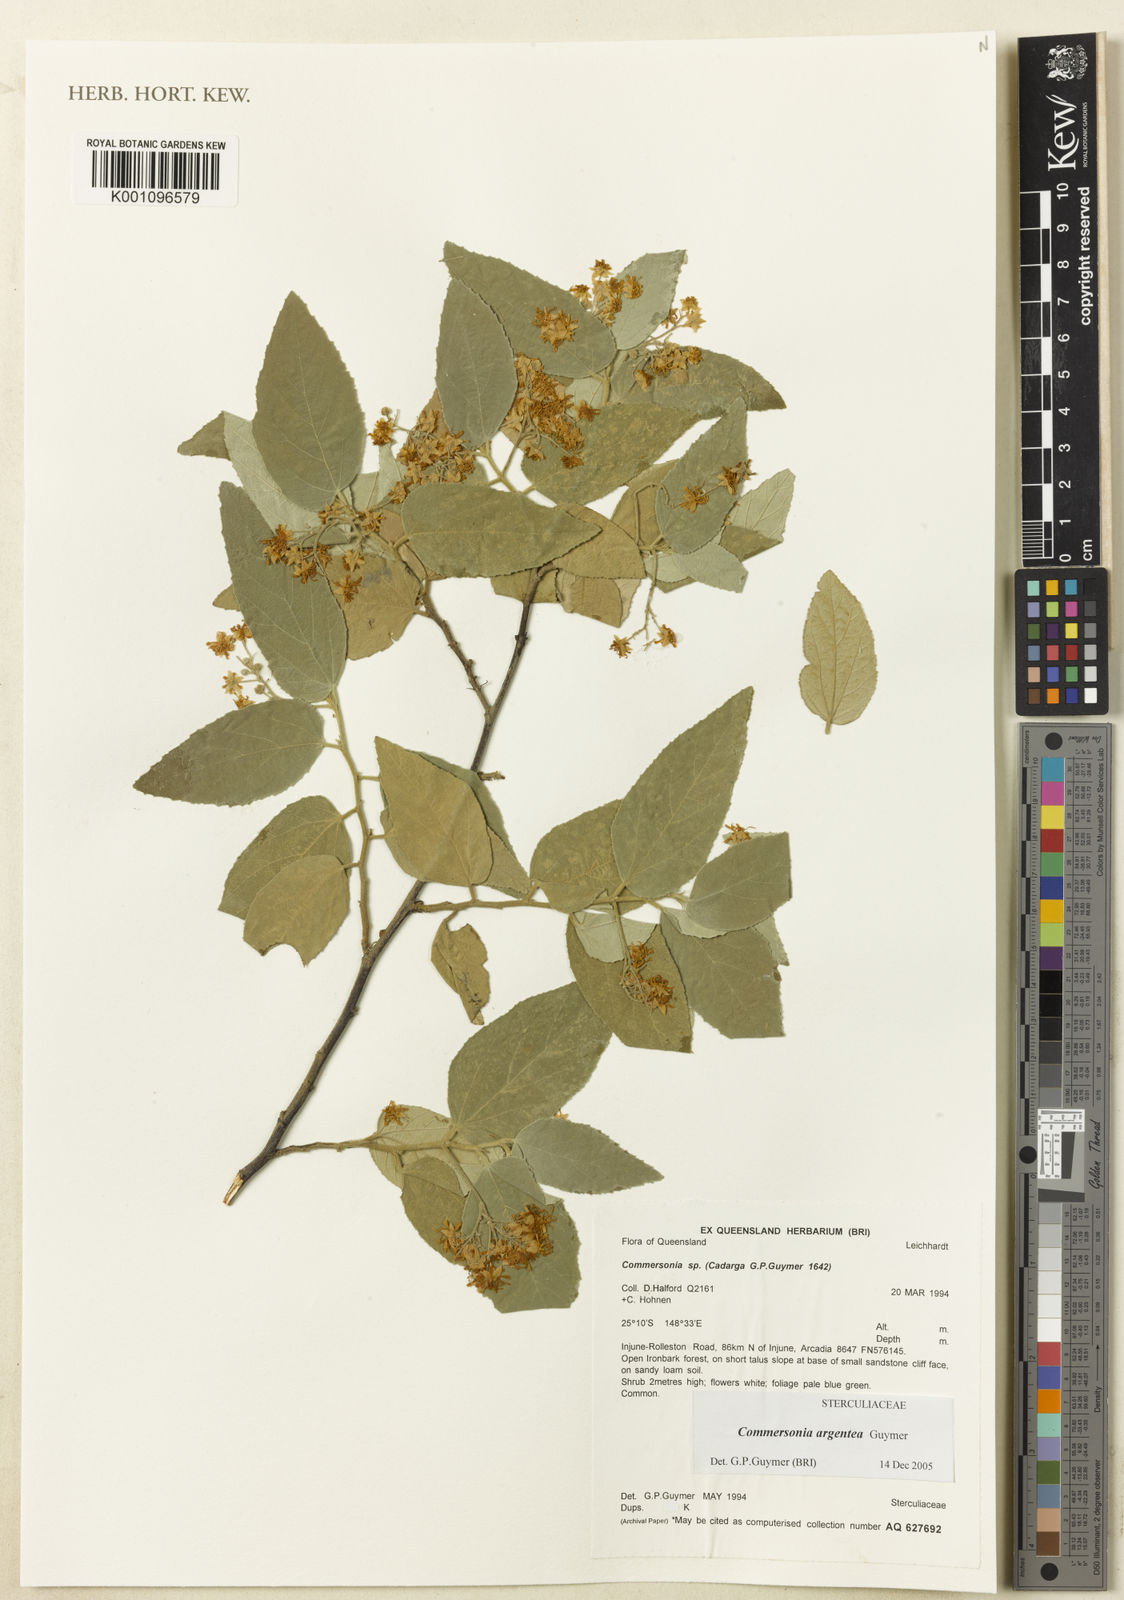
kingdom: Plantae
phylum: Tracheophyta
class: Magnoliopsida
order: Malvales
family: Malvaceae
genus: Androcalva
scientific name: Androcalva argentea
